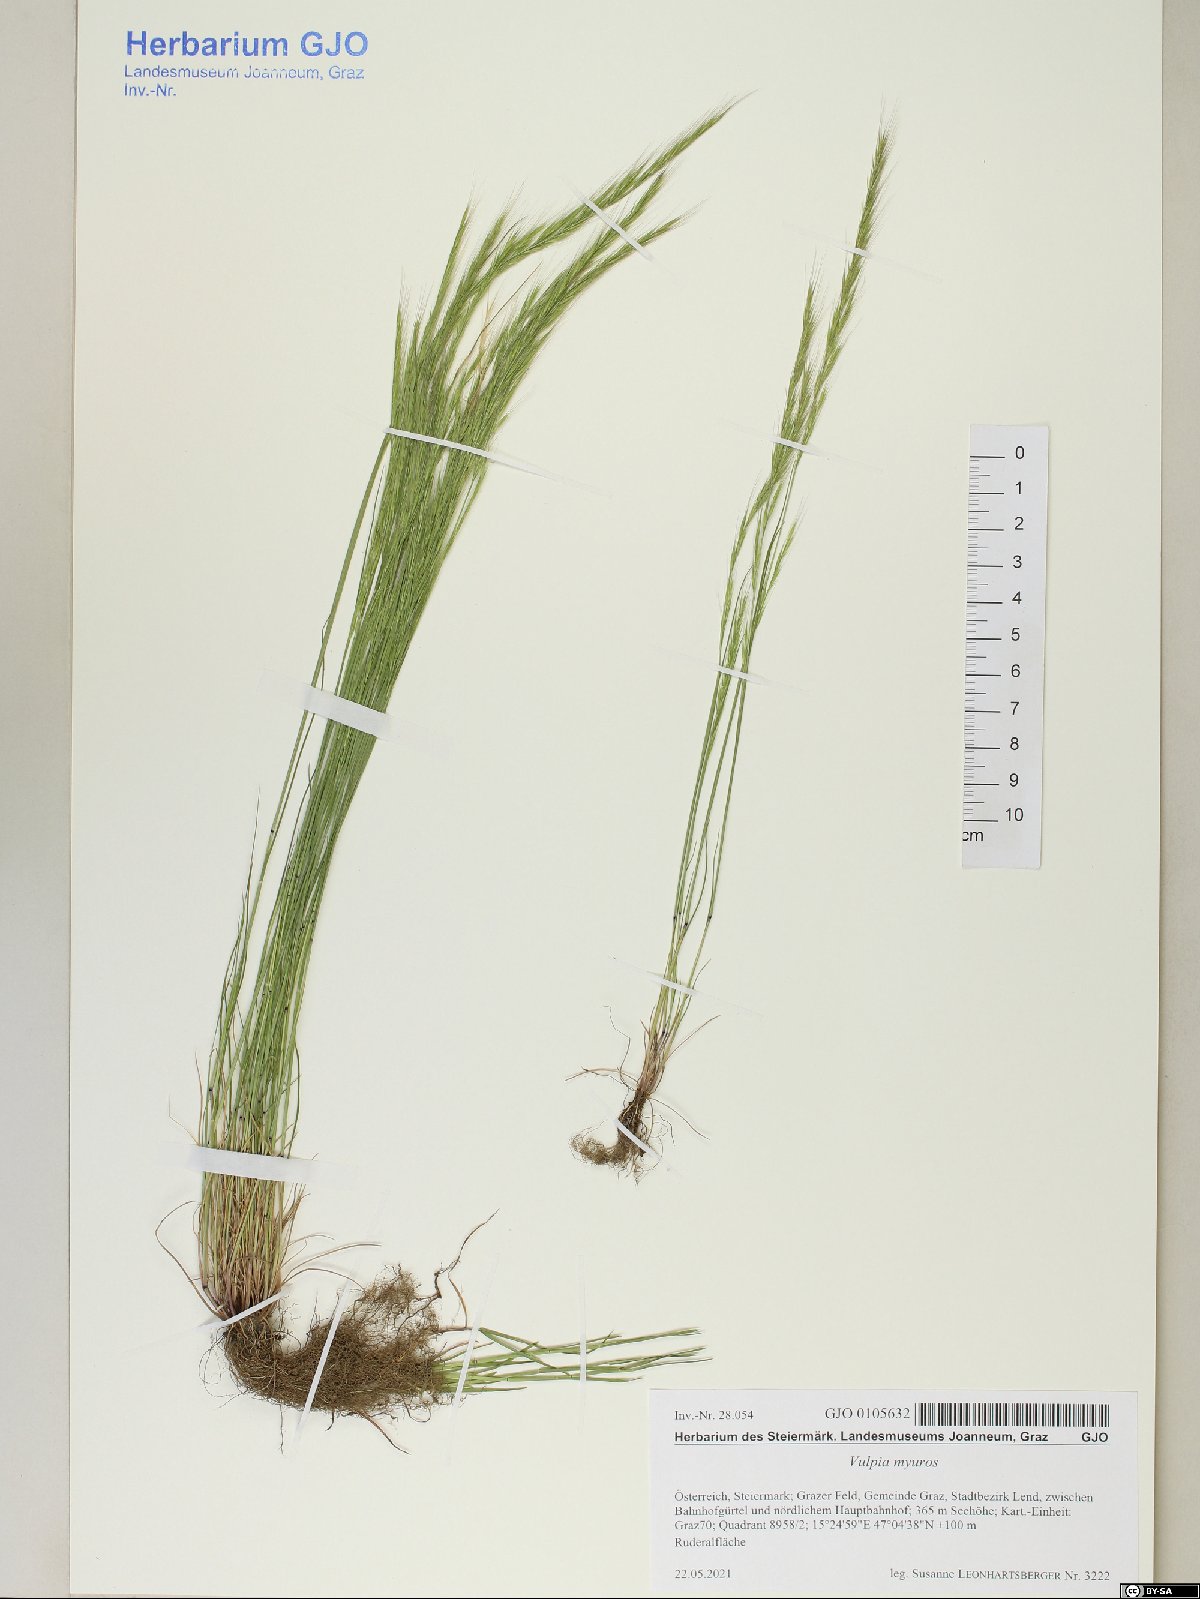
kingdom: Plantae
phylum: Tracheophyta
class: Liliopsida
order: Poales
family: Poaceae
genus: Festuca
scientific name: Festuca myuros
